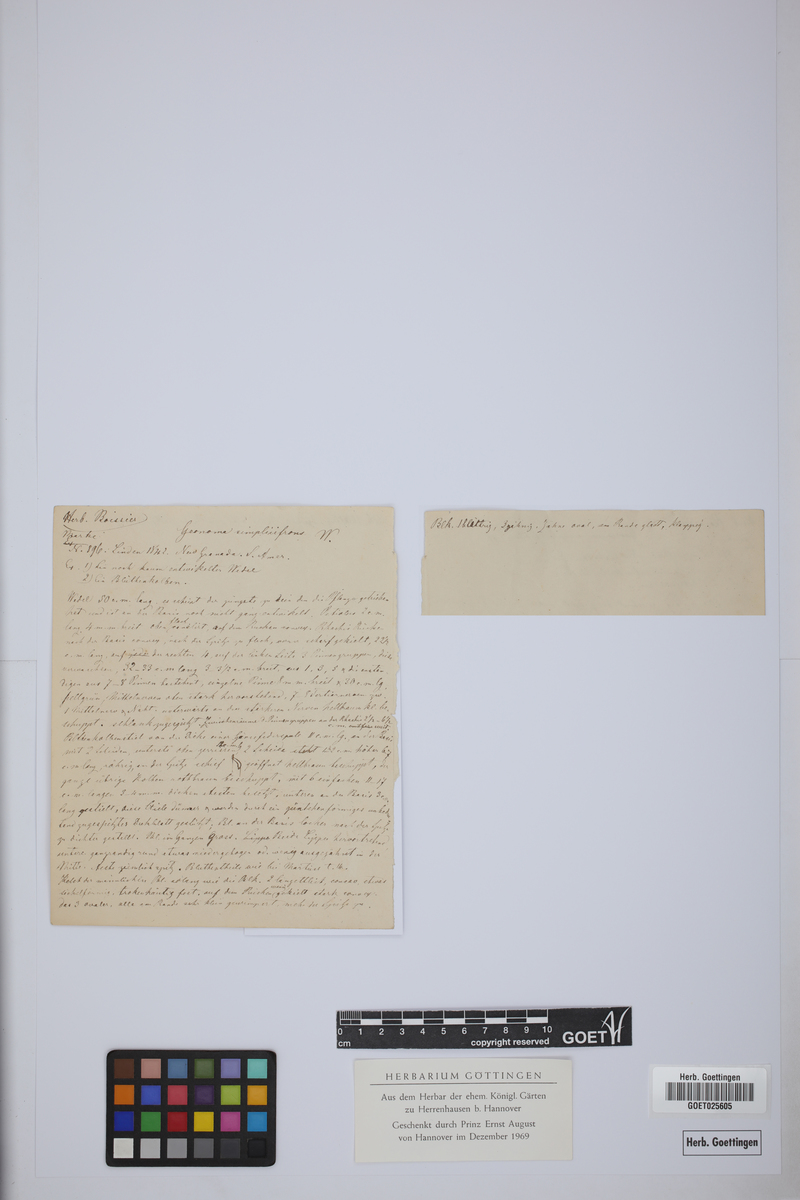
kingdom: Plantae
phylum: Tracheophyta
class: Liliopsida
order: Arecales
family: Arecaceae
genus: Geonoma
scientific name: Geonoma simplicifrons
